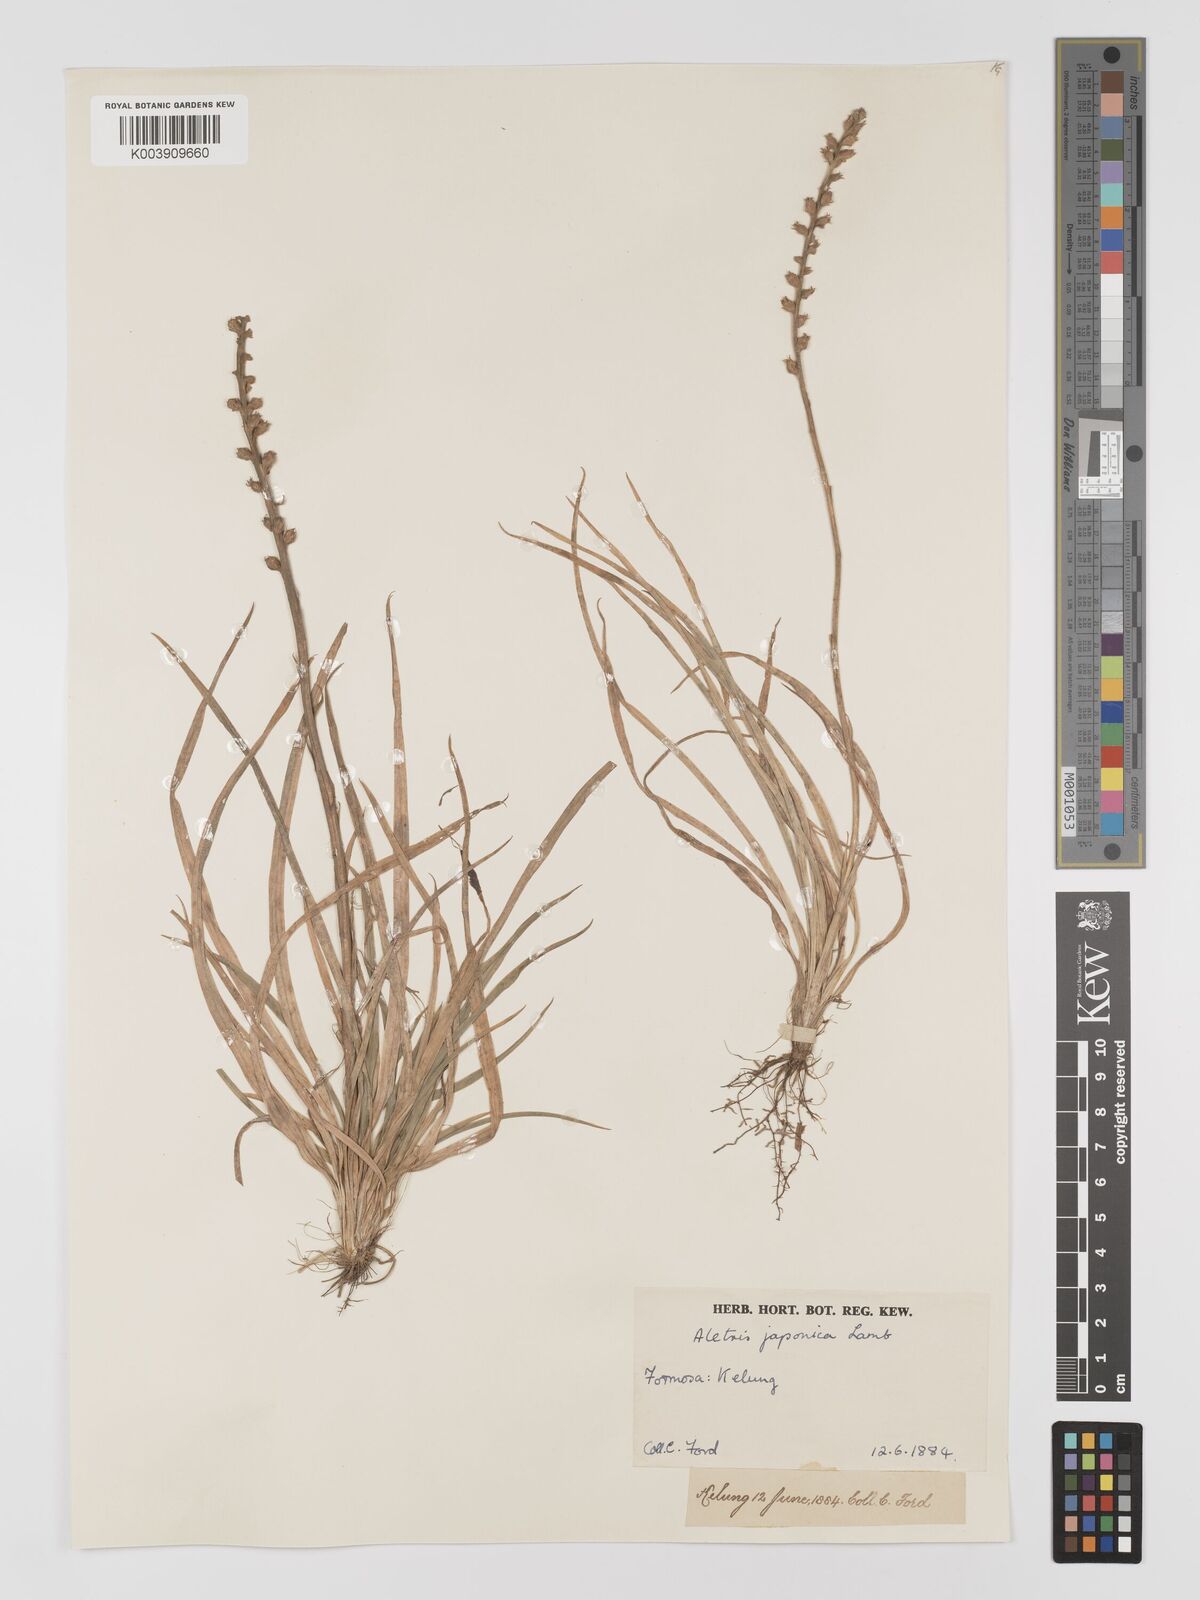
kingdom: Plantae
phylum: Tracheophyta
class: Liliopsida
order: Dioscoreales
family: Nartheciaceae
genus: Aletris
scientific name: Aletris spicata
